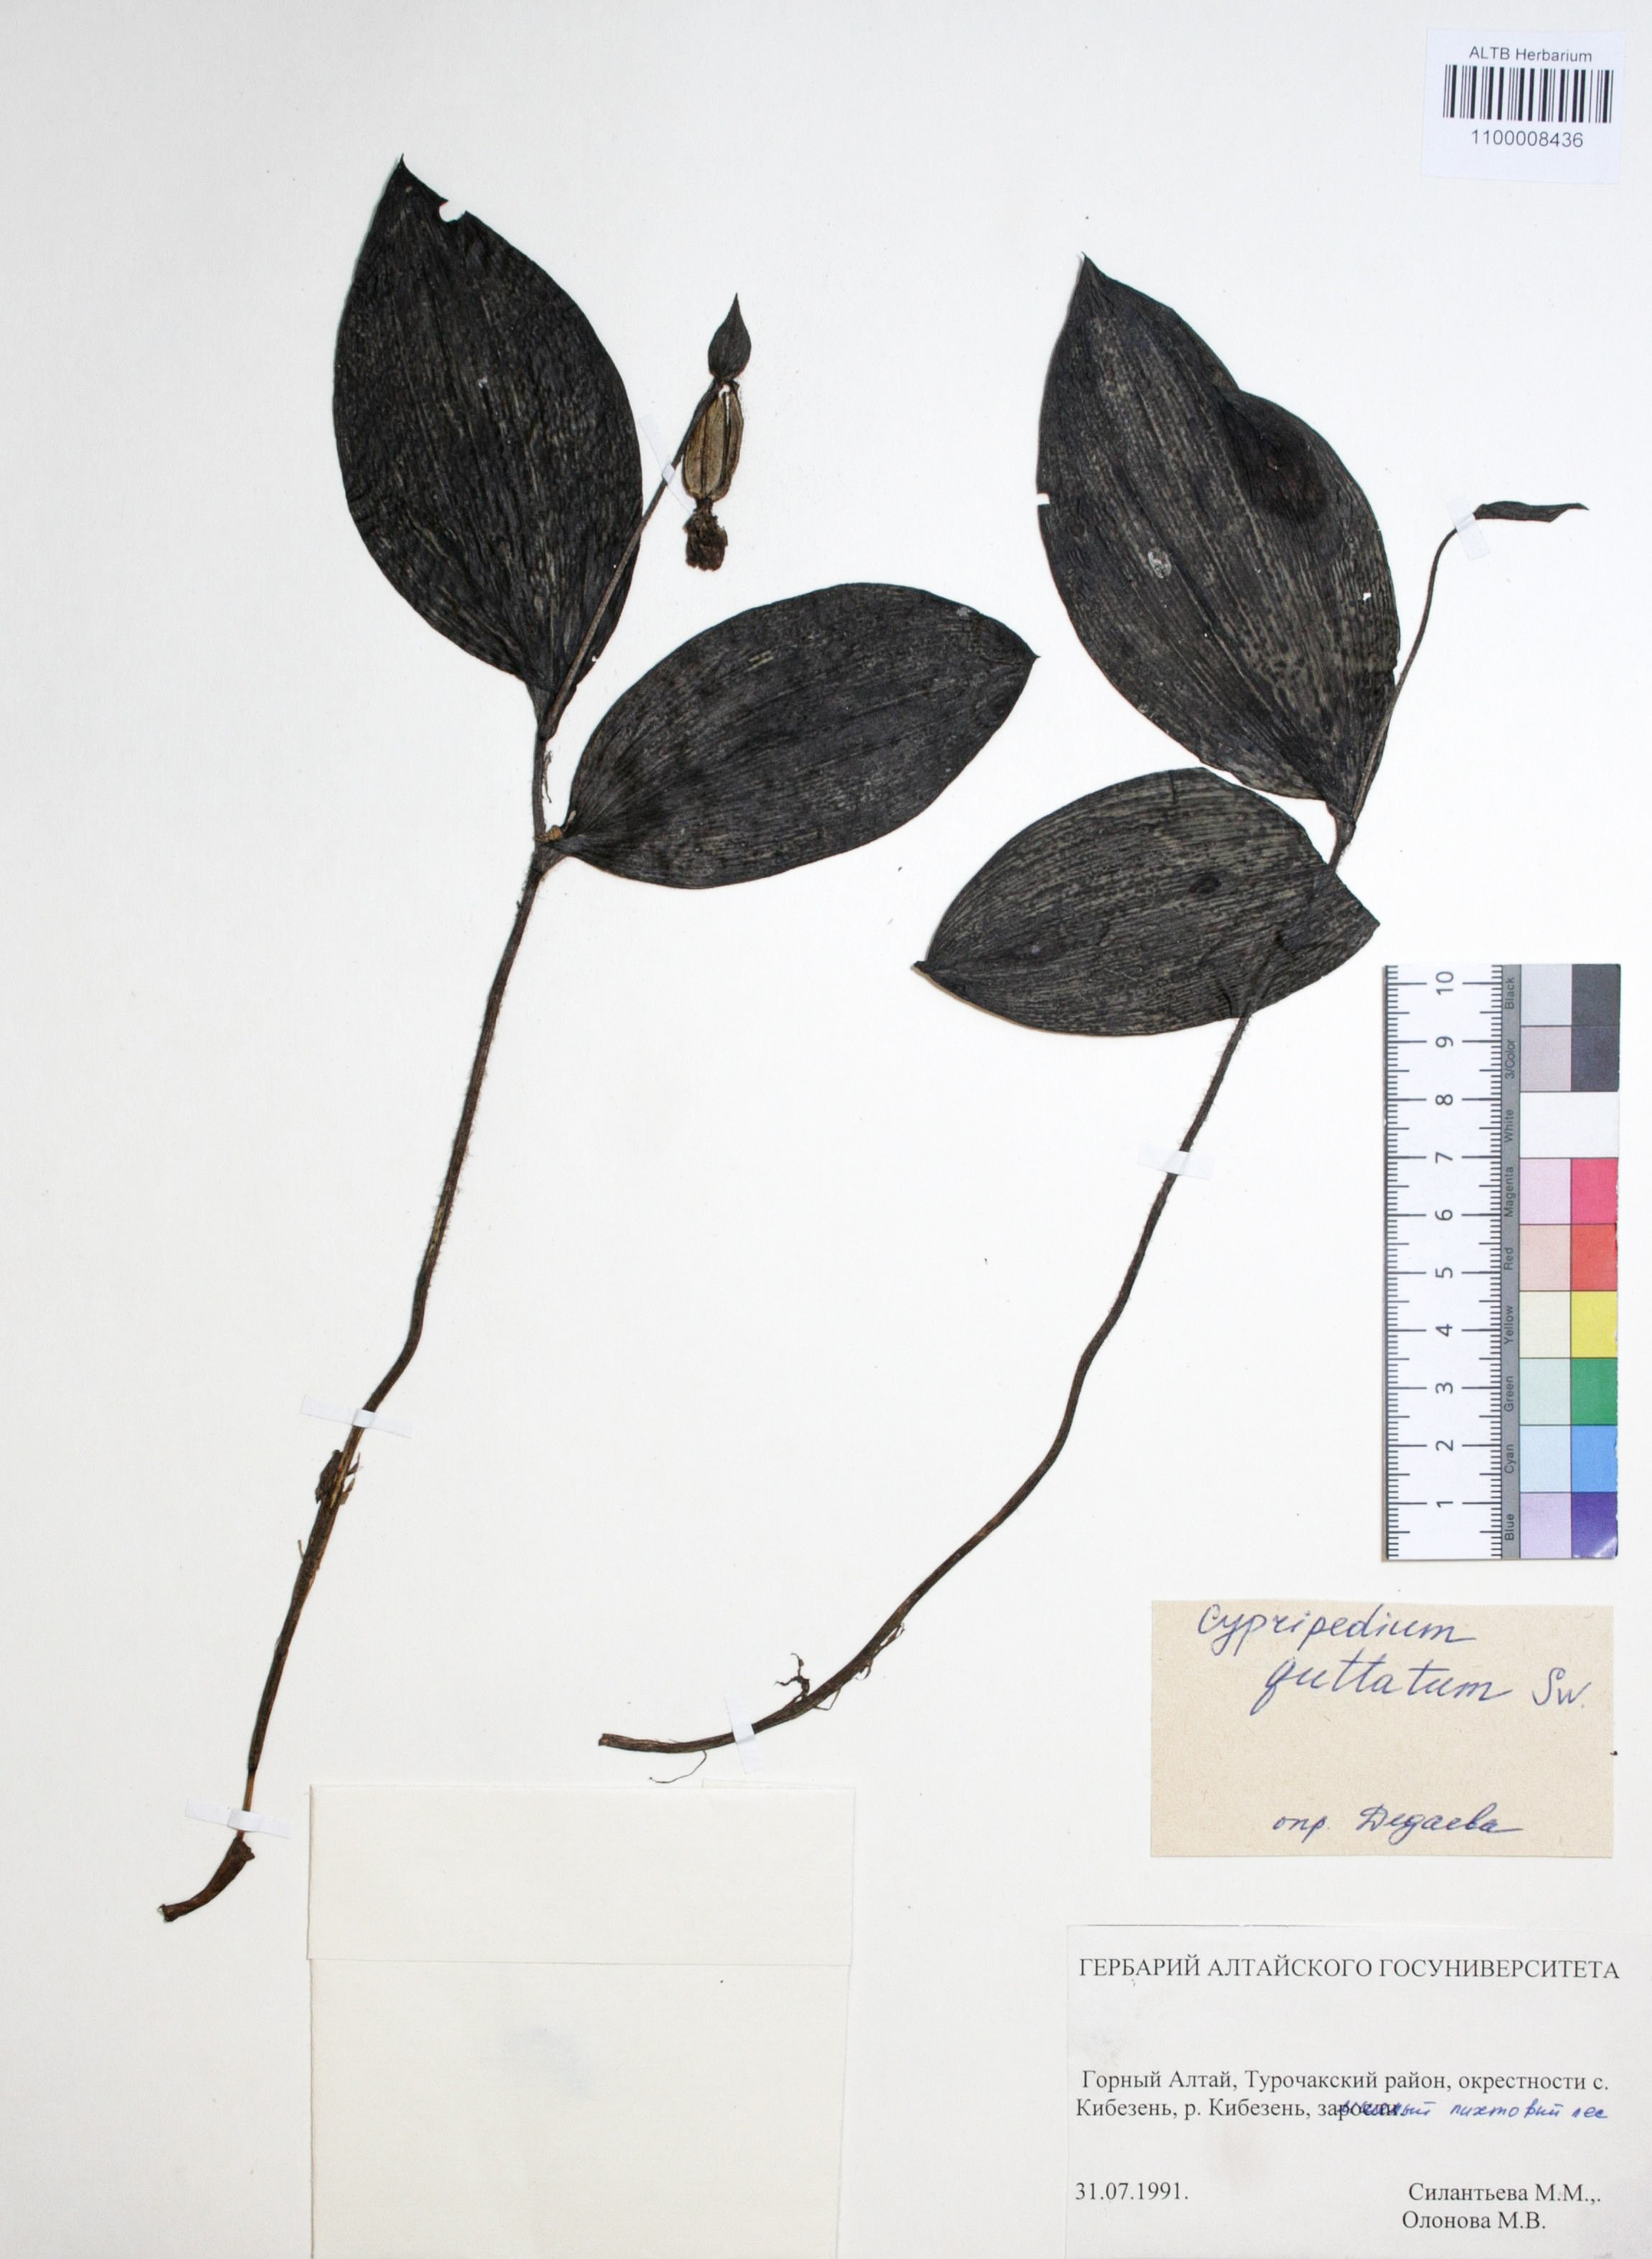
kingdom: Plantae
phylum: Tracheophyta
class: Liliopsida
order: Asparagales
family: Orchidaceae
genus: Cypripedium
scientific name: Cypripedium guttatum
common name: Pink lady slipper
